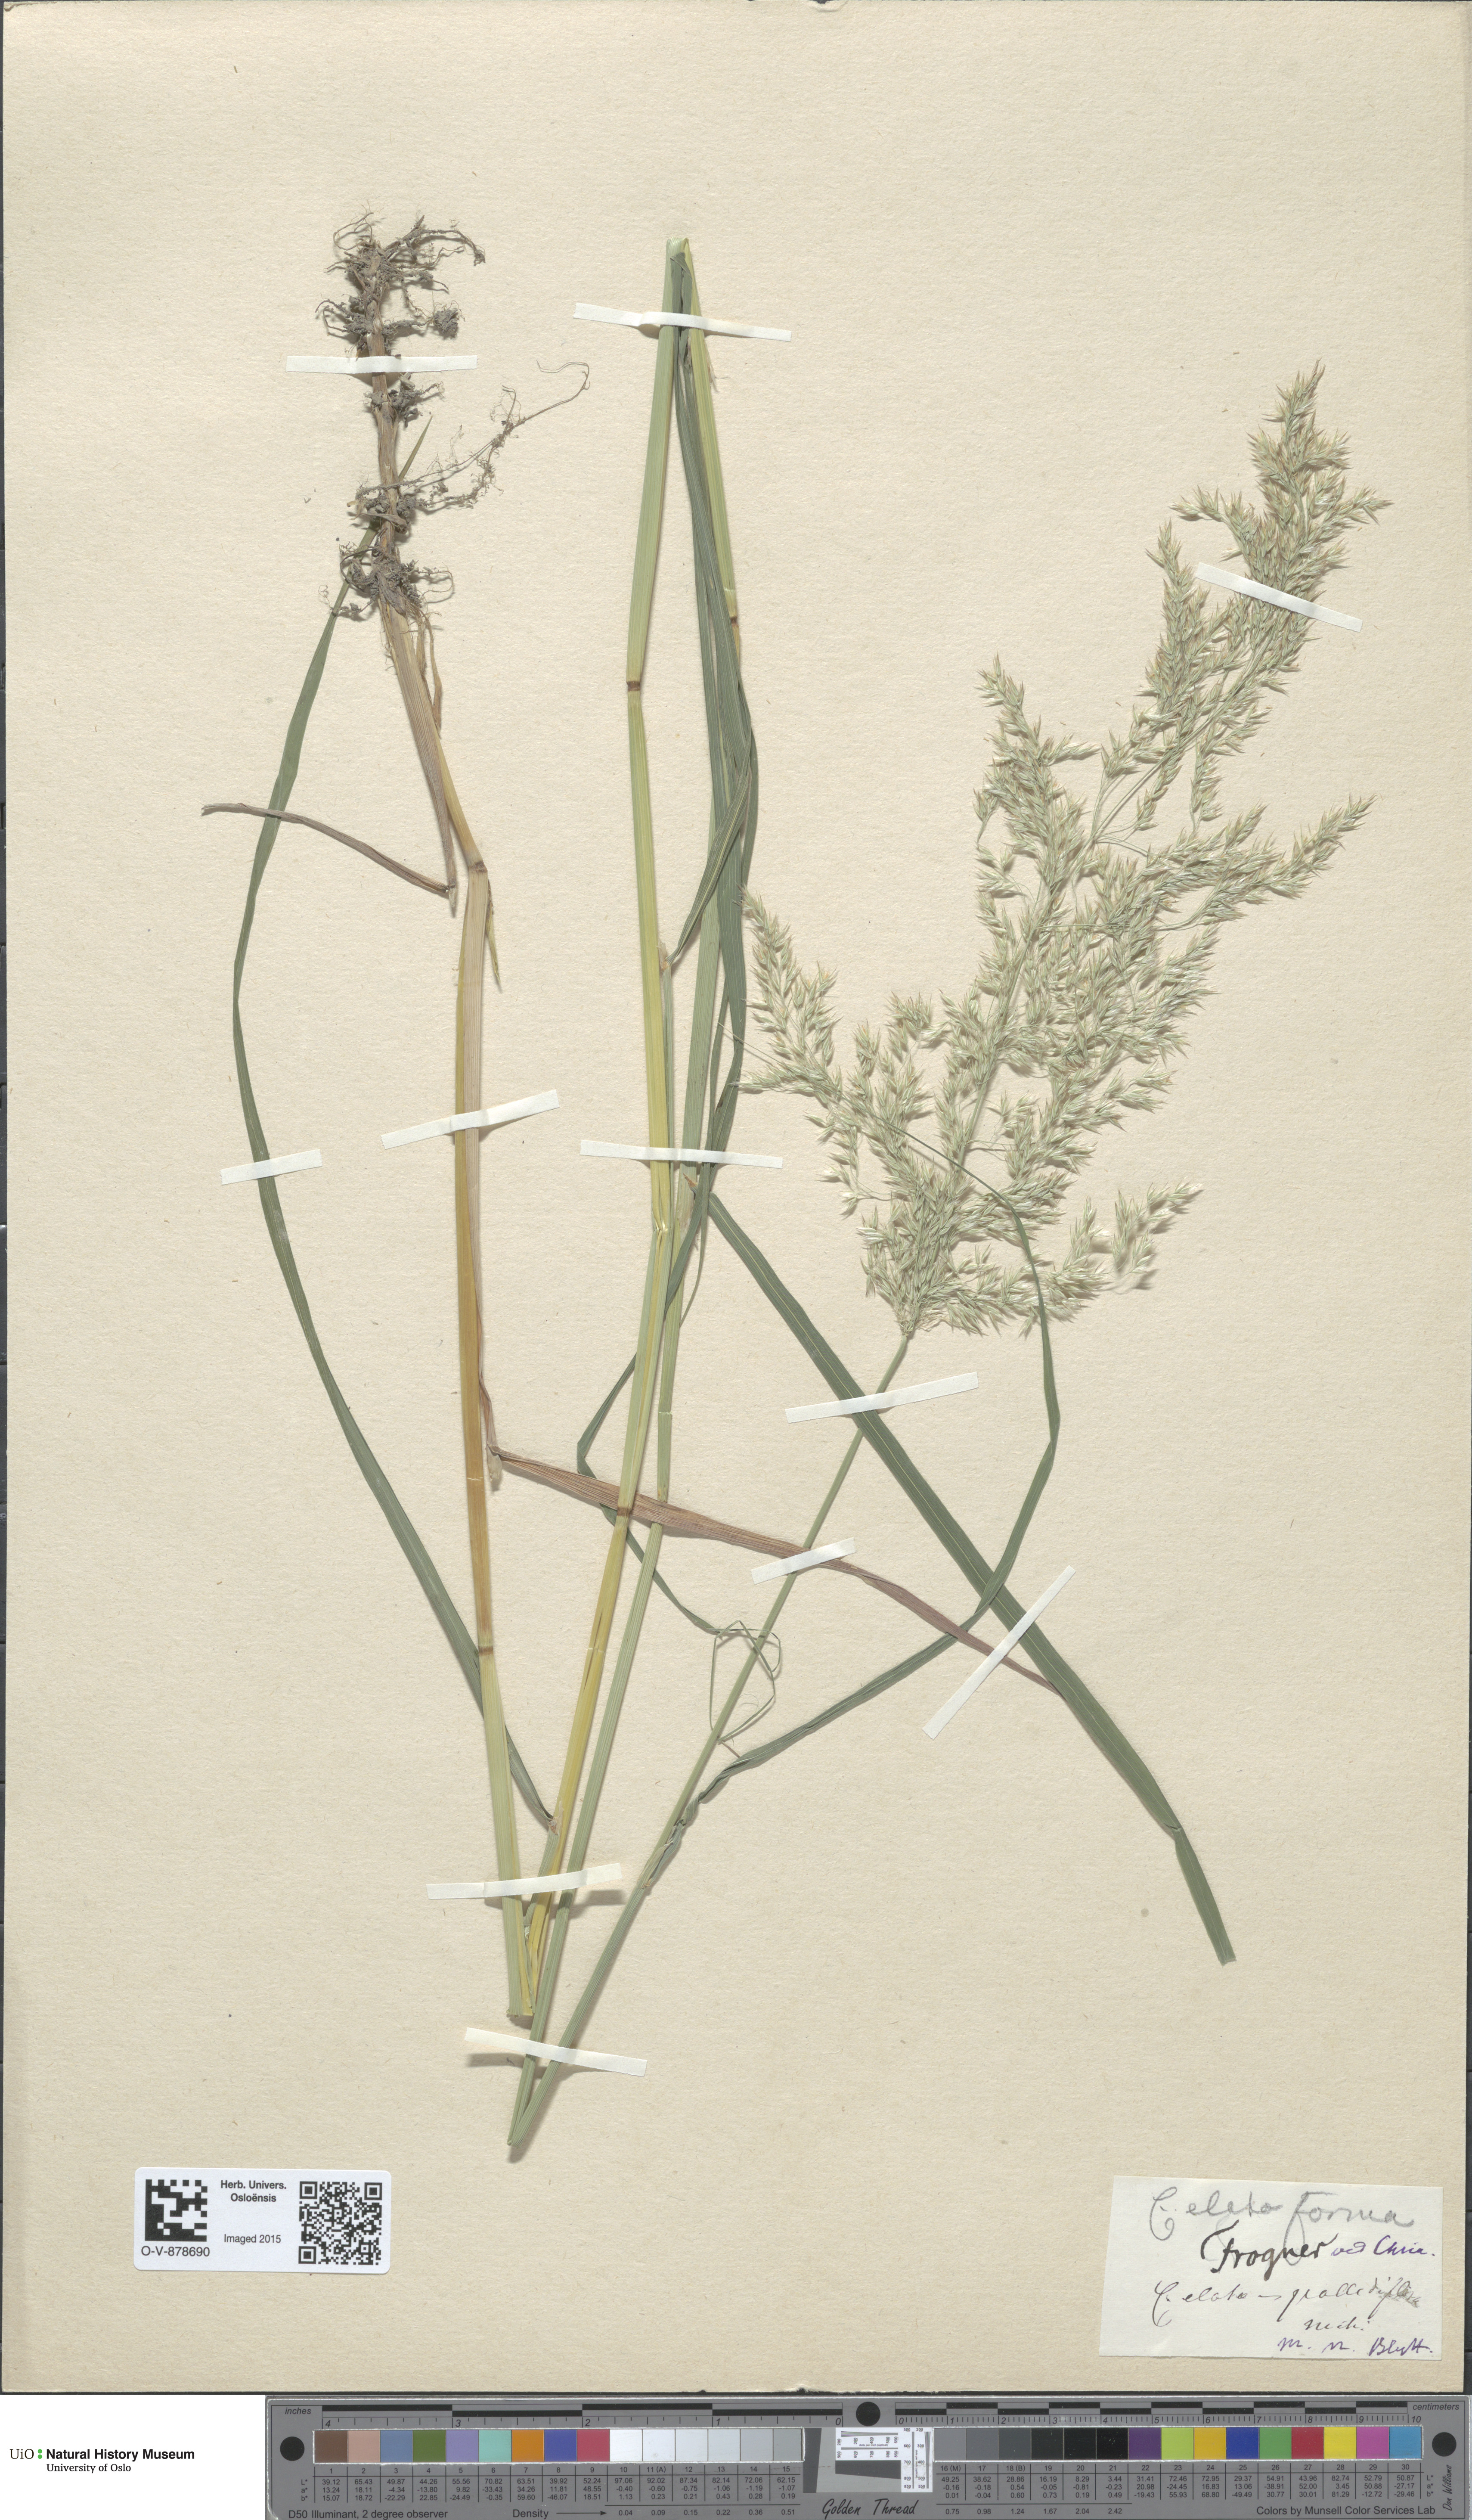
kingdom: Plantae
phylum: Tracheophyta
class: Liliopsida
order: Poales
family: Poaceae
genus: Calamagrostis
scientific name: Calamagrostis purpurea
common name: Scandinavian small-reed
